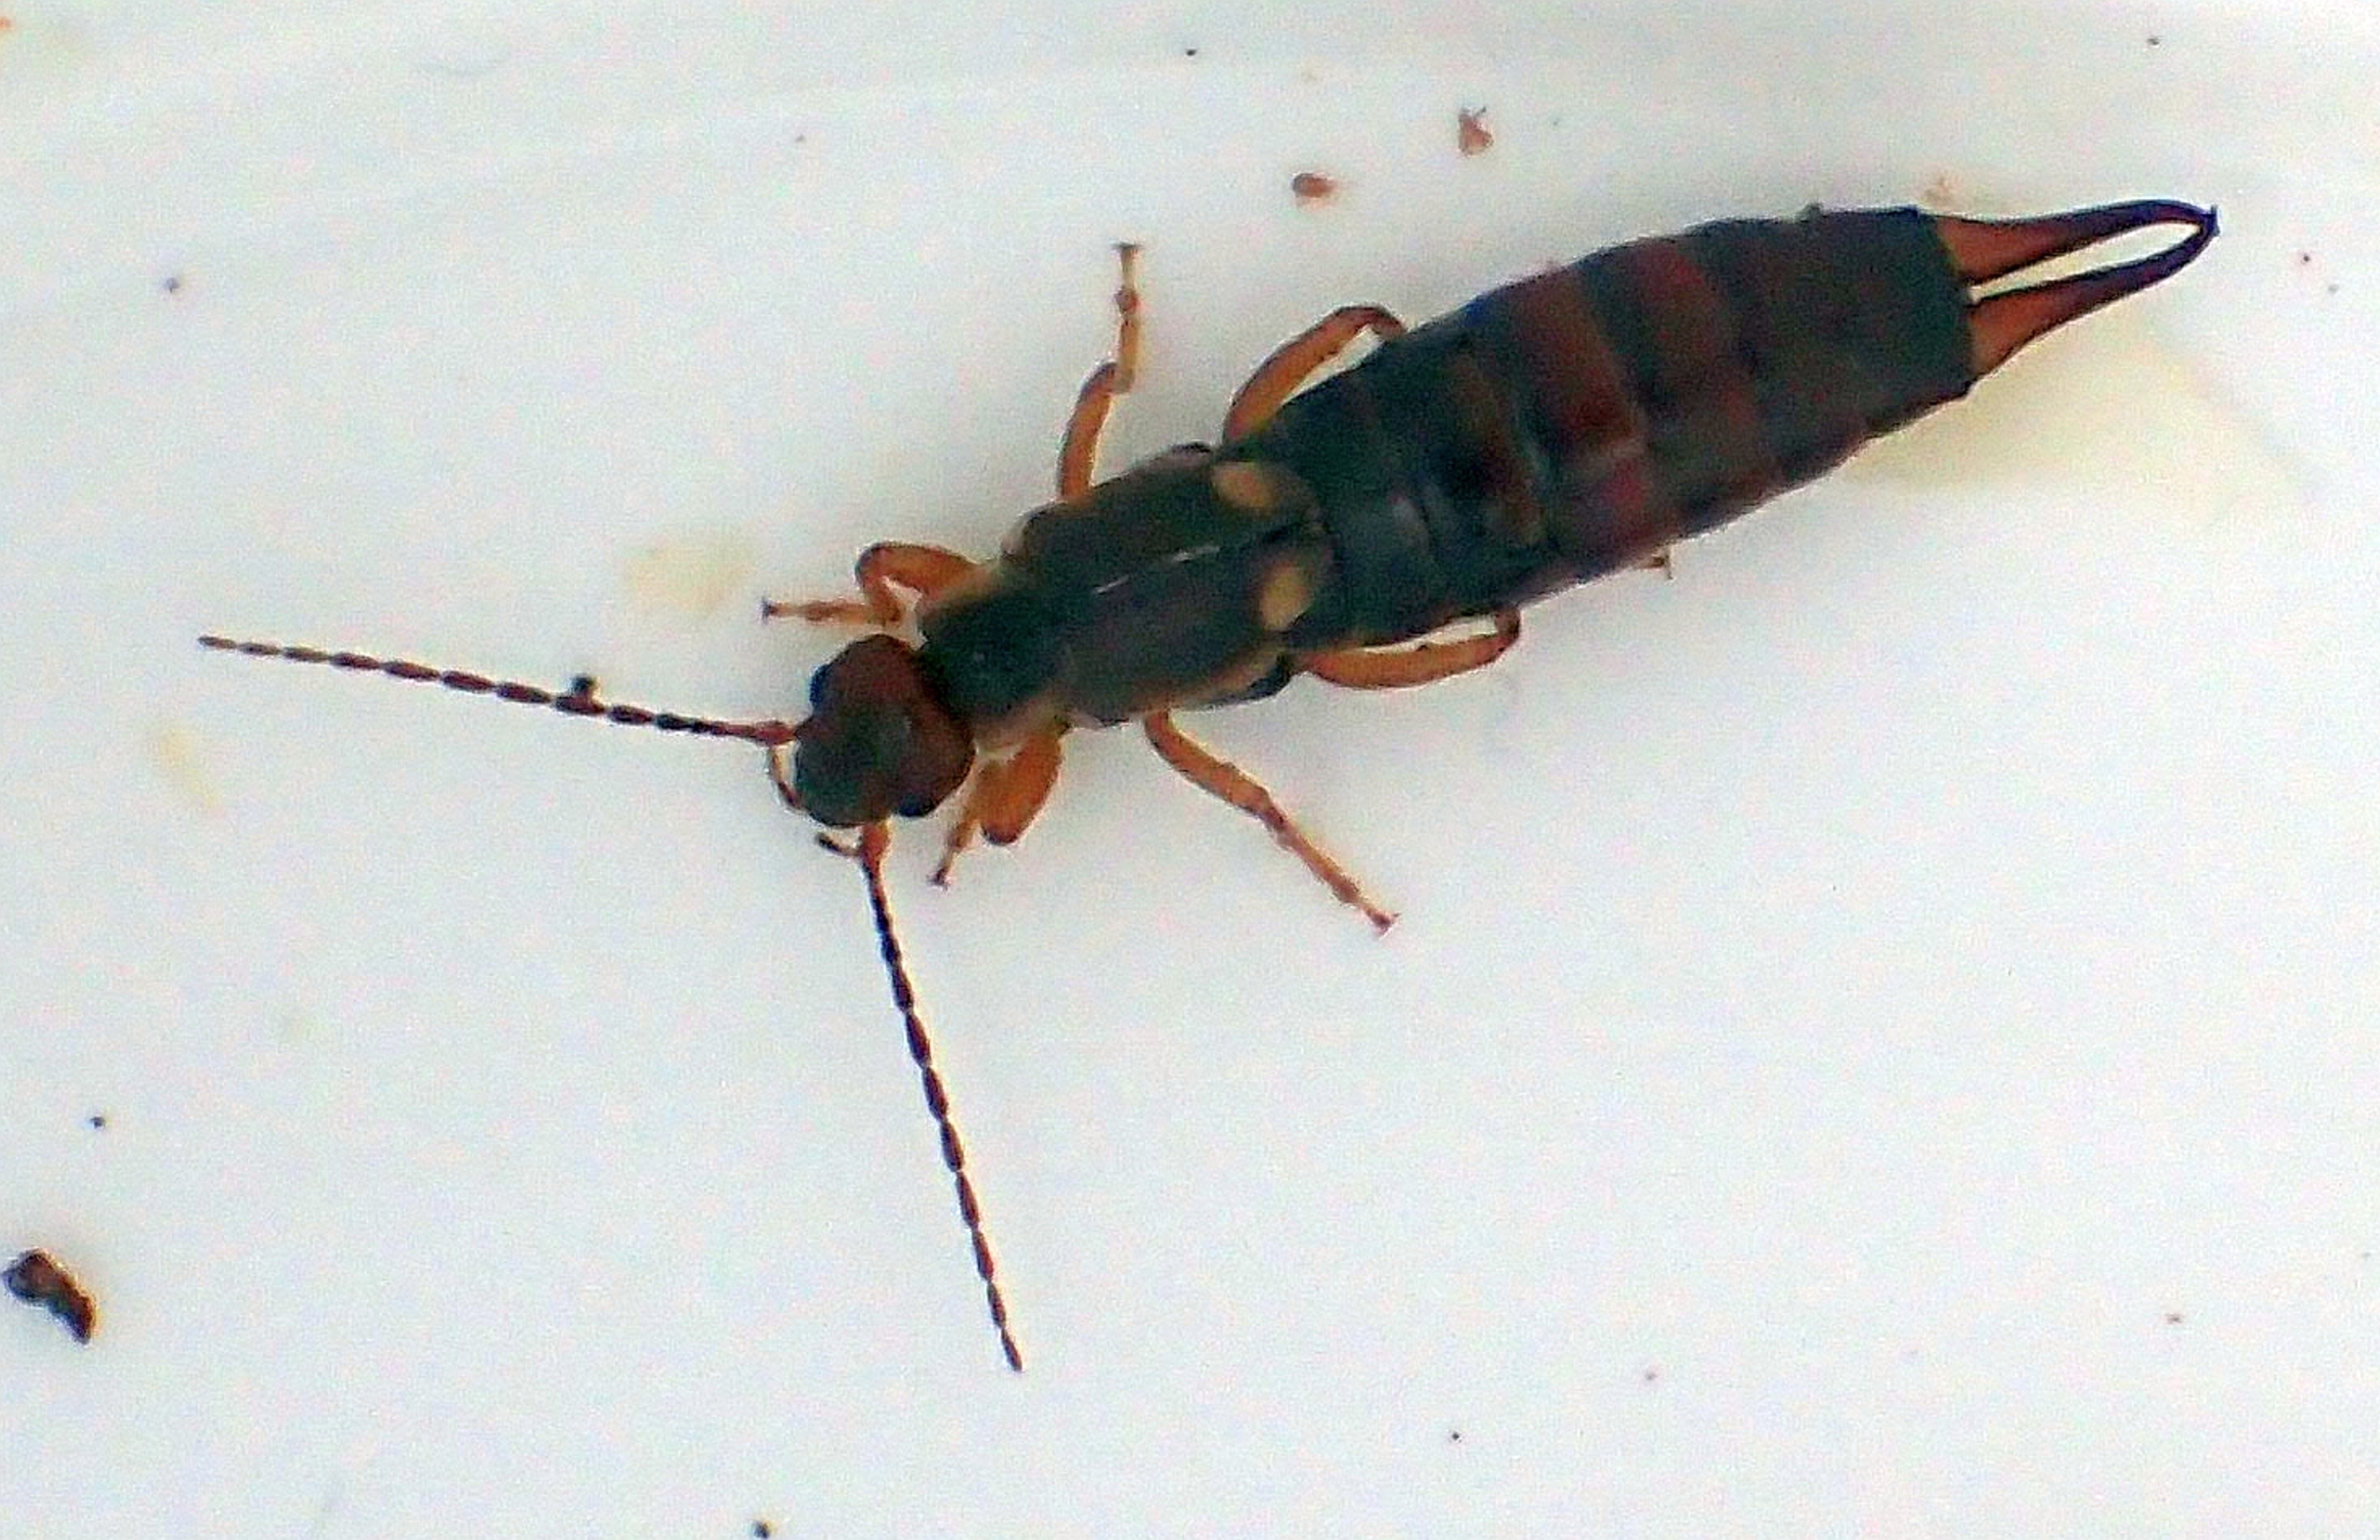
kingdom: Animalia
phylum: Arthropoda
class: Insecta
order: Dermaptera
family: Forficulidae
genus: Forficula
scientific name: Forficula auricularia
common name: Almindelig ørentvist
